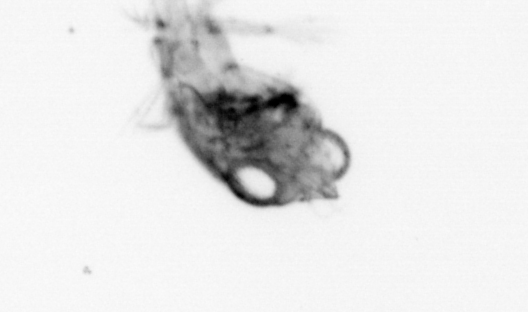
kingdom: Animalia
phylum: Arthropoda
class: Malacostraca
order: Decapoda
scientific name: Decapoda
